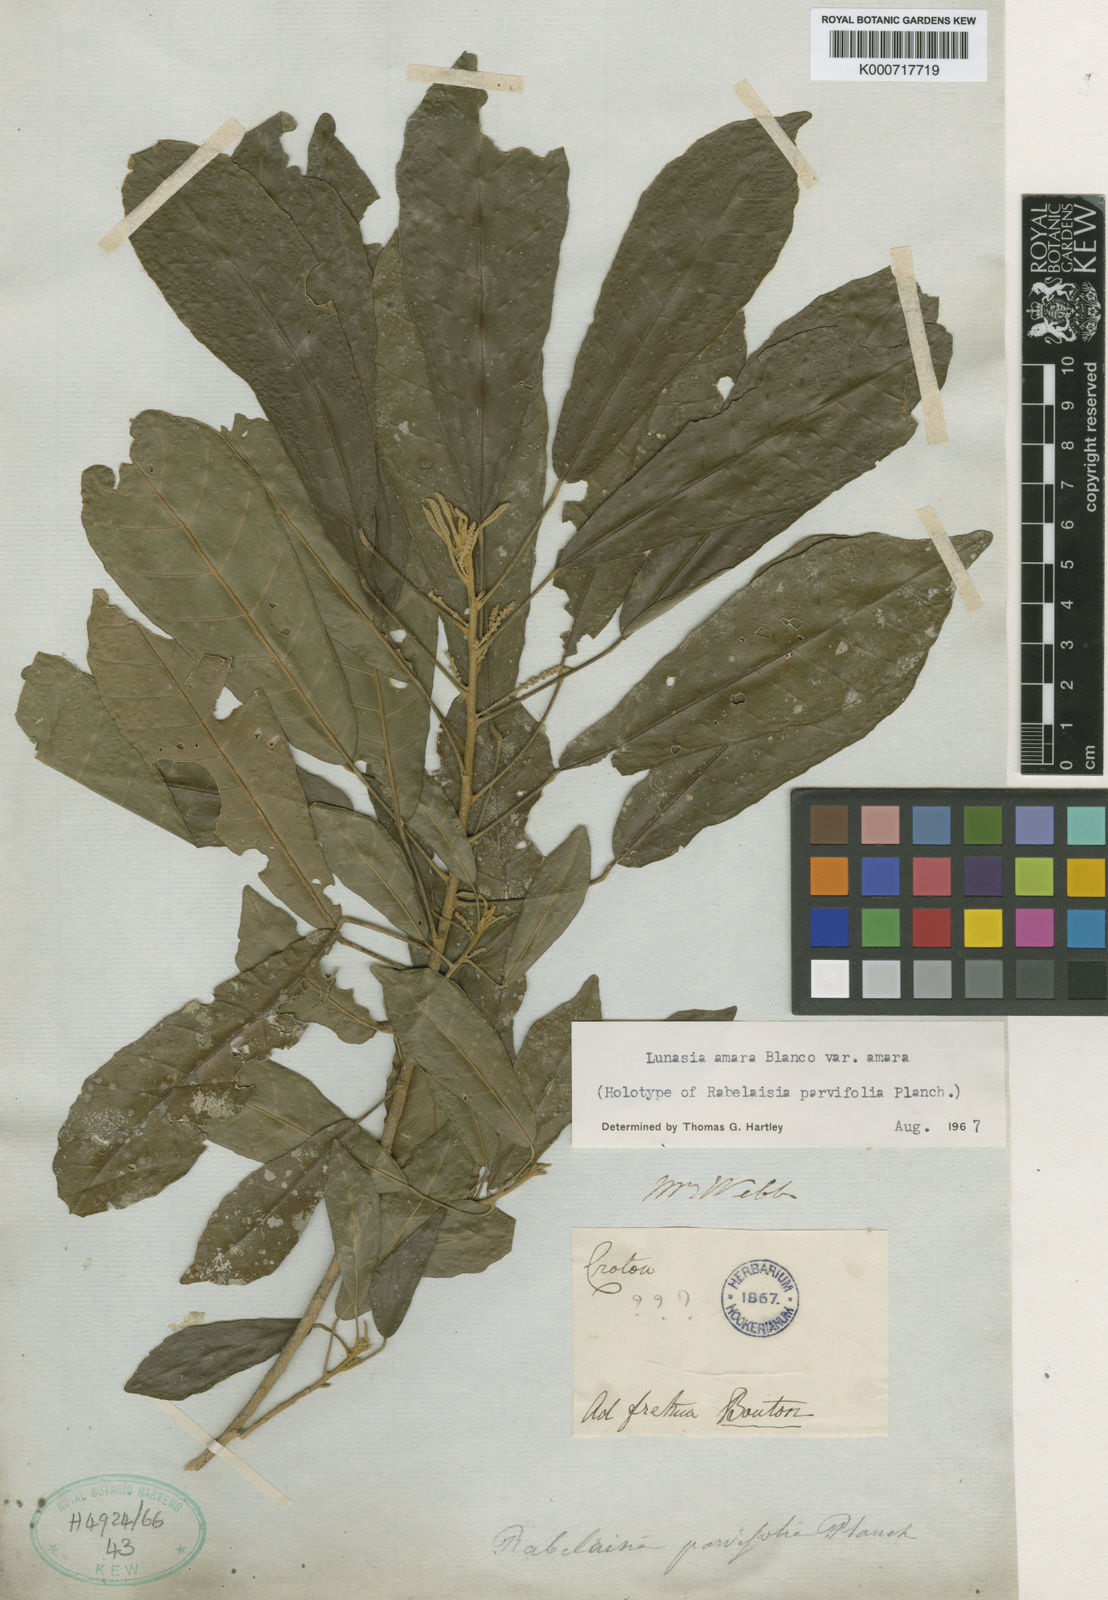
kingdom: Plantae
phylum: Tracheophyta
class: Magnoliopsida
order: Sapindales
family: Rutaceae
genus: Lunasia
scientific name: Lunasia amara
